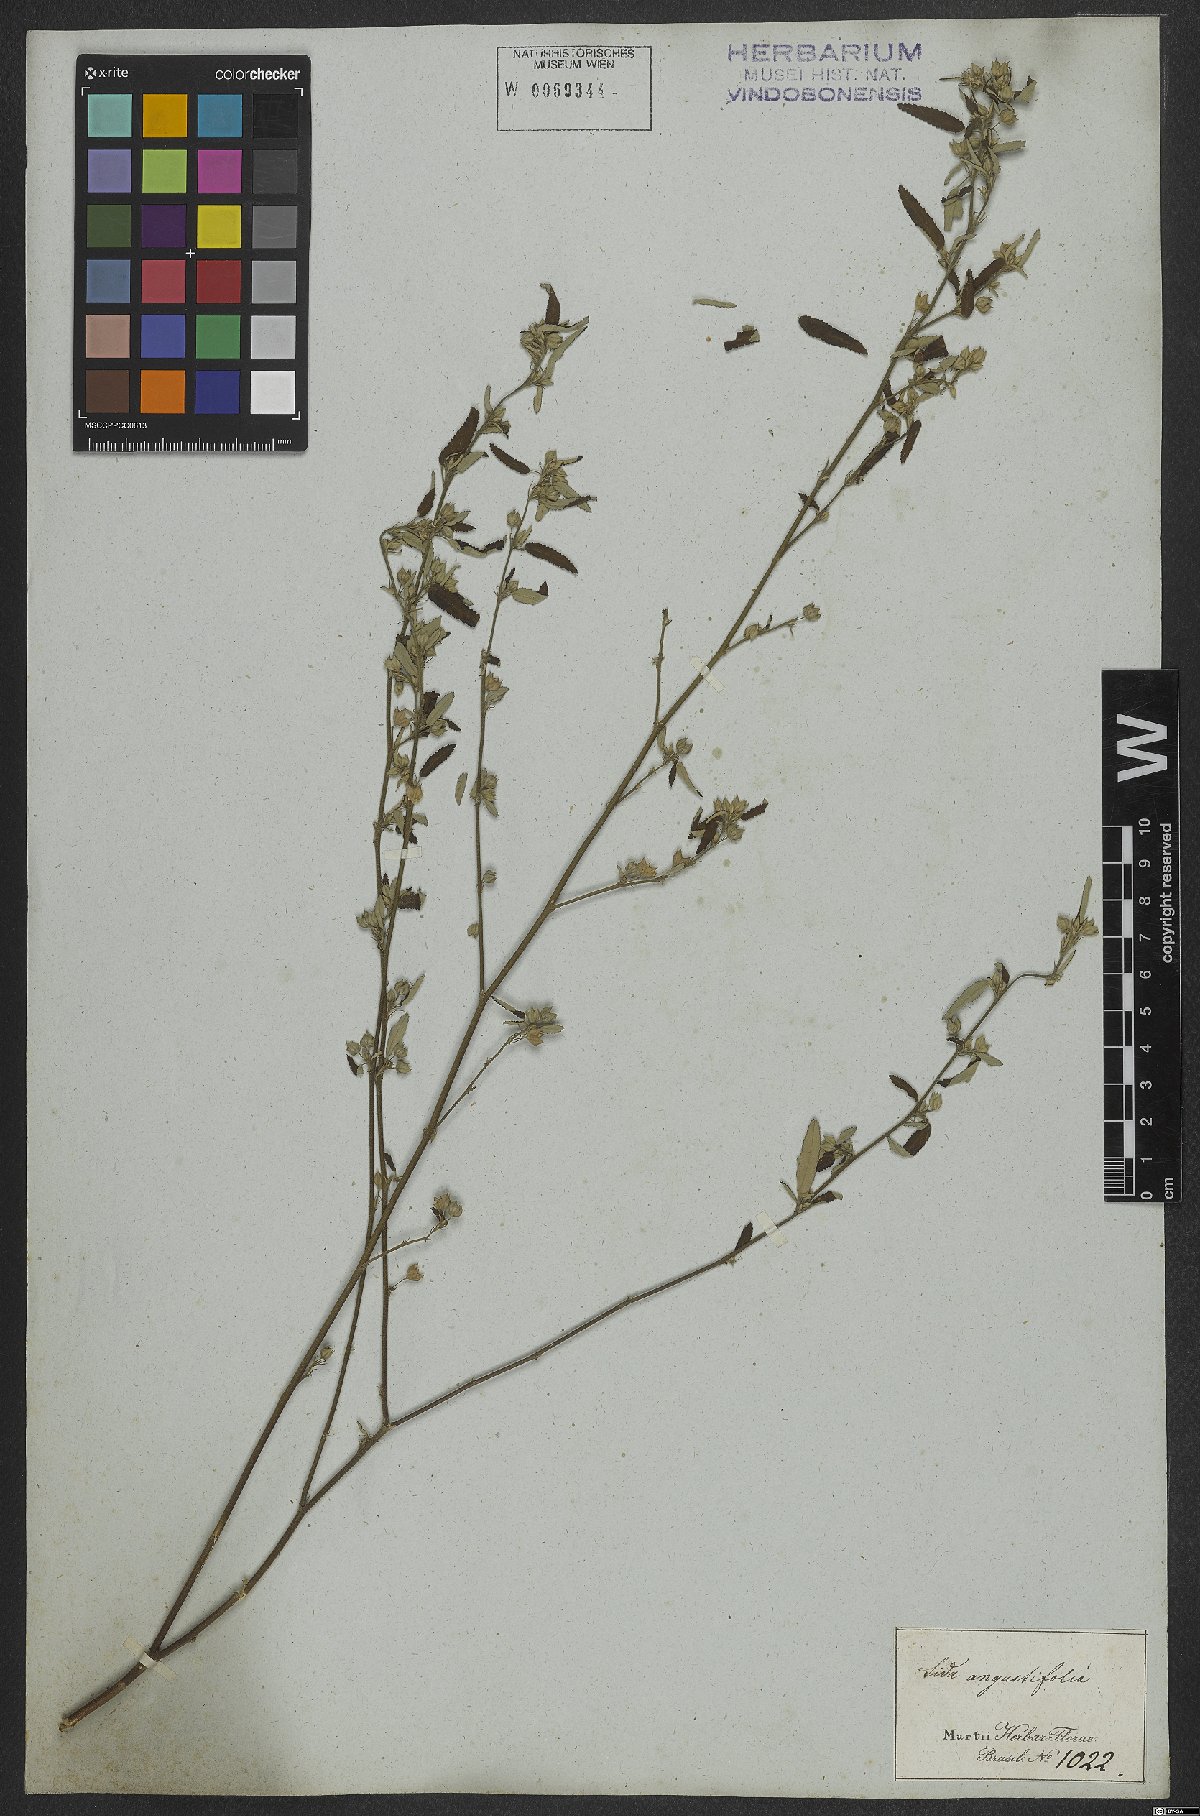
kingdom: Plantae
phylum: Tracheophyta
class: Magnoliopsida
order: Malvales
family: Malvaceae
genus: Sida
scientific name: Sida spinosa
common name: Prickly fanpetals
